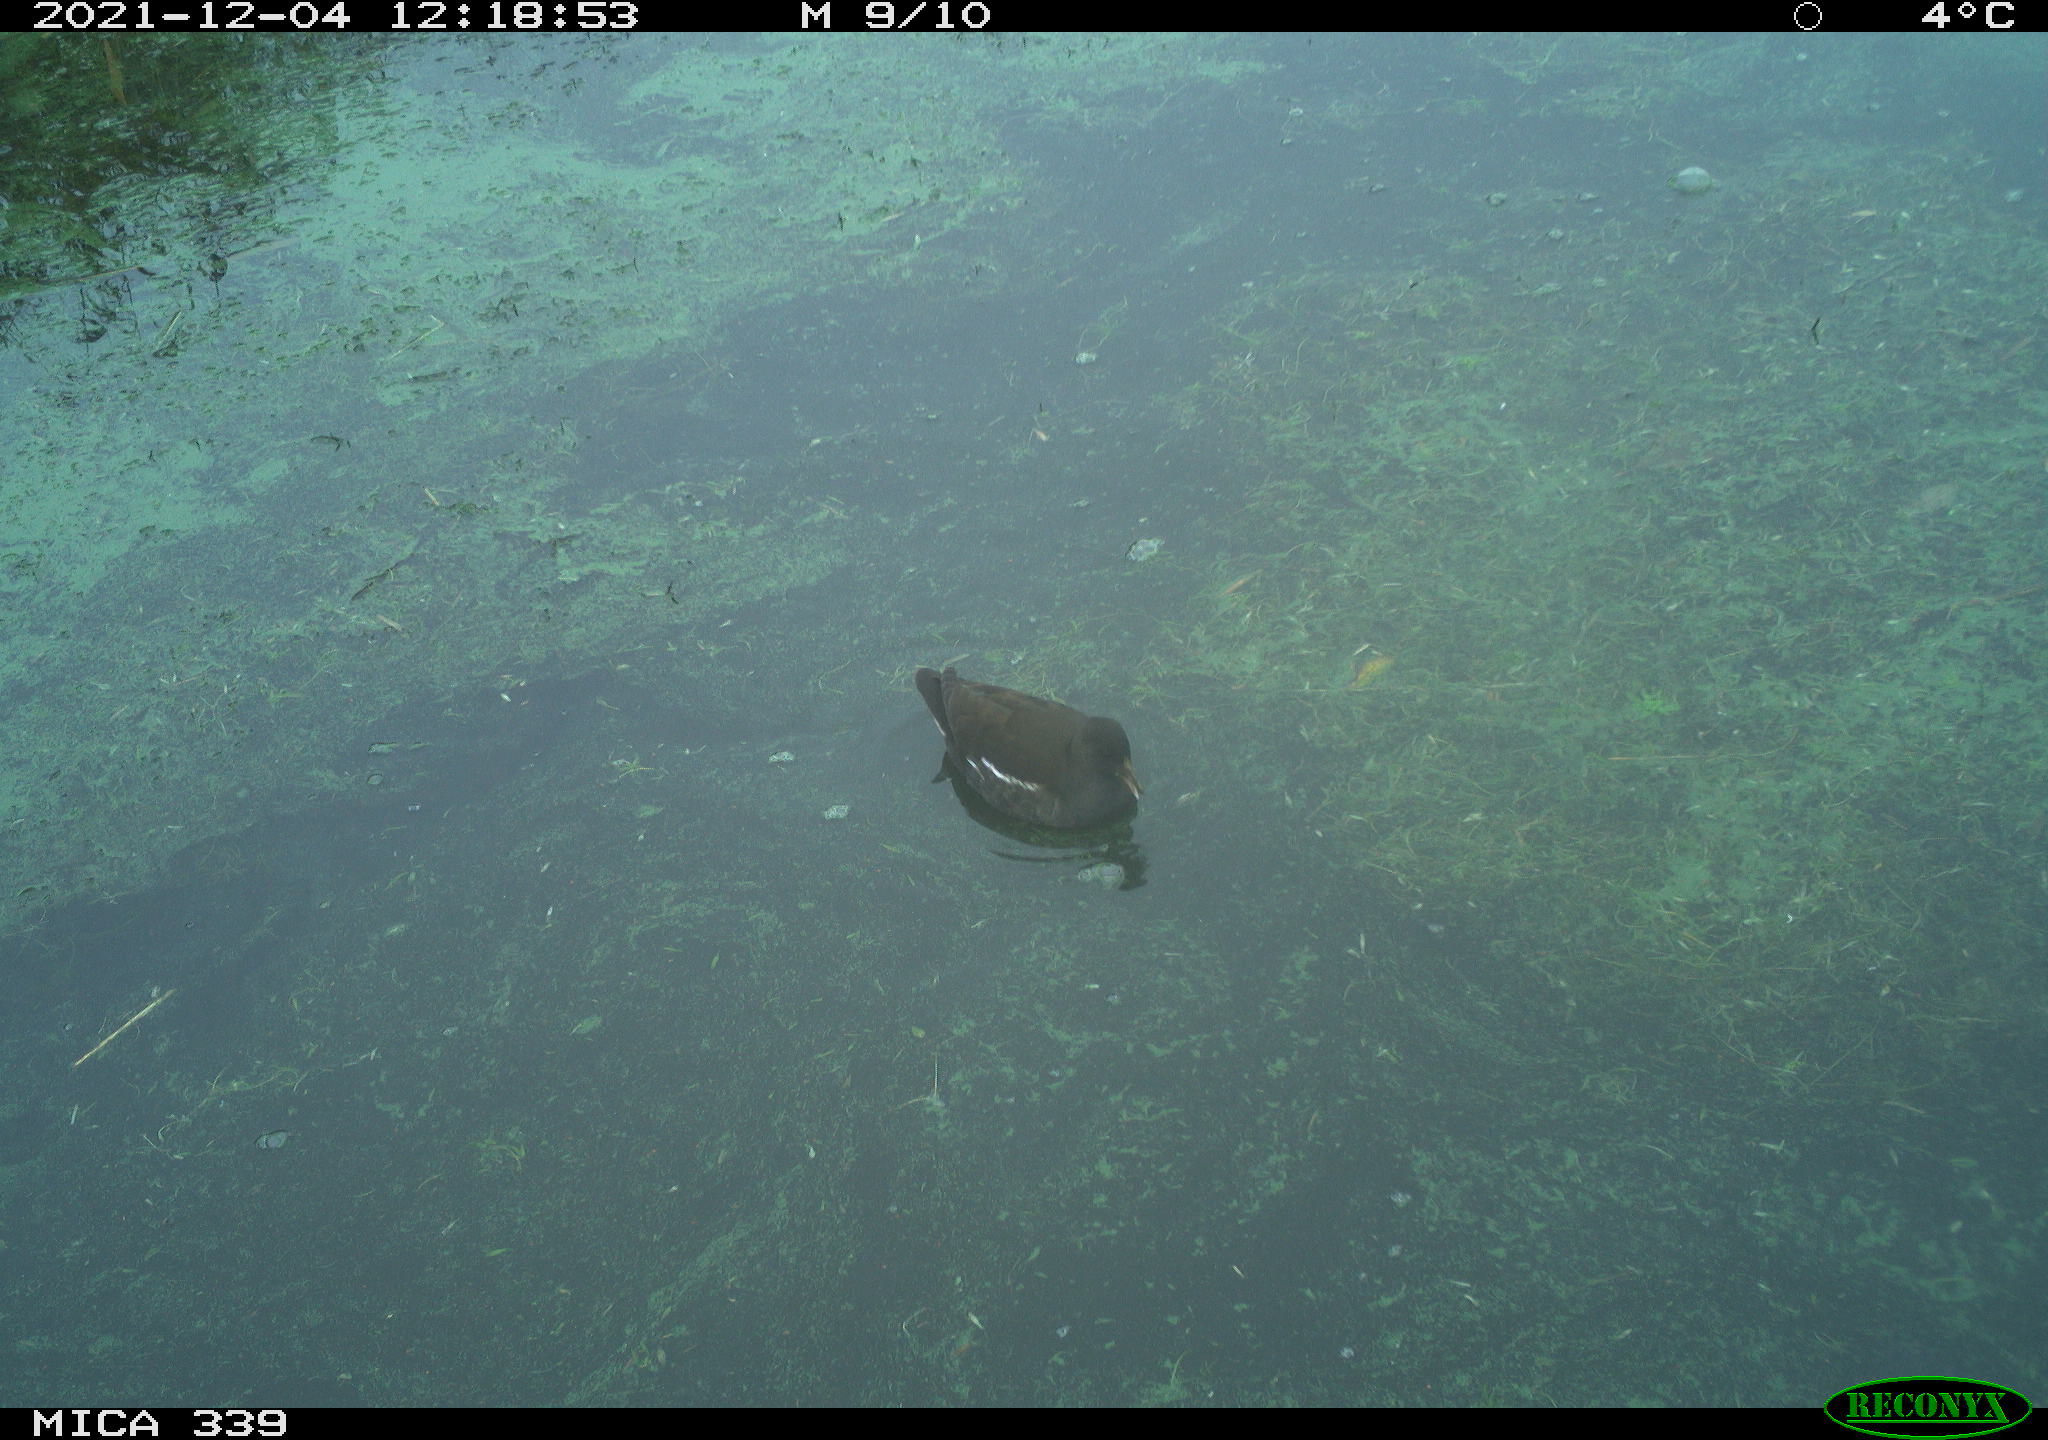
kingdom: Animalia
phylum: Chordata
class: Aves
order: Gruiformes
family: Rallidae
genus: Gallinula
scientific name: Gallinula chloropus
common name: Common moorhen
